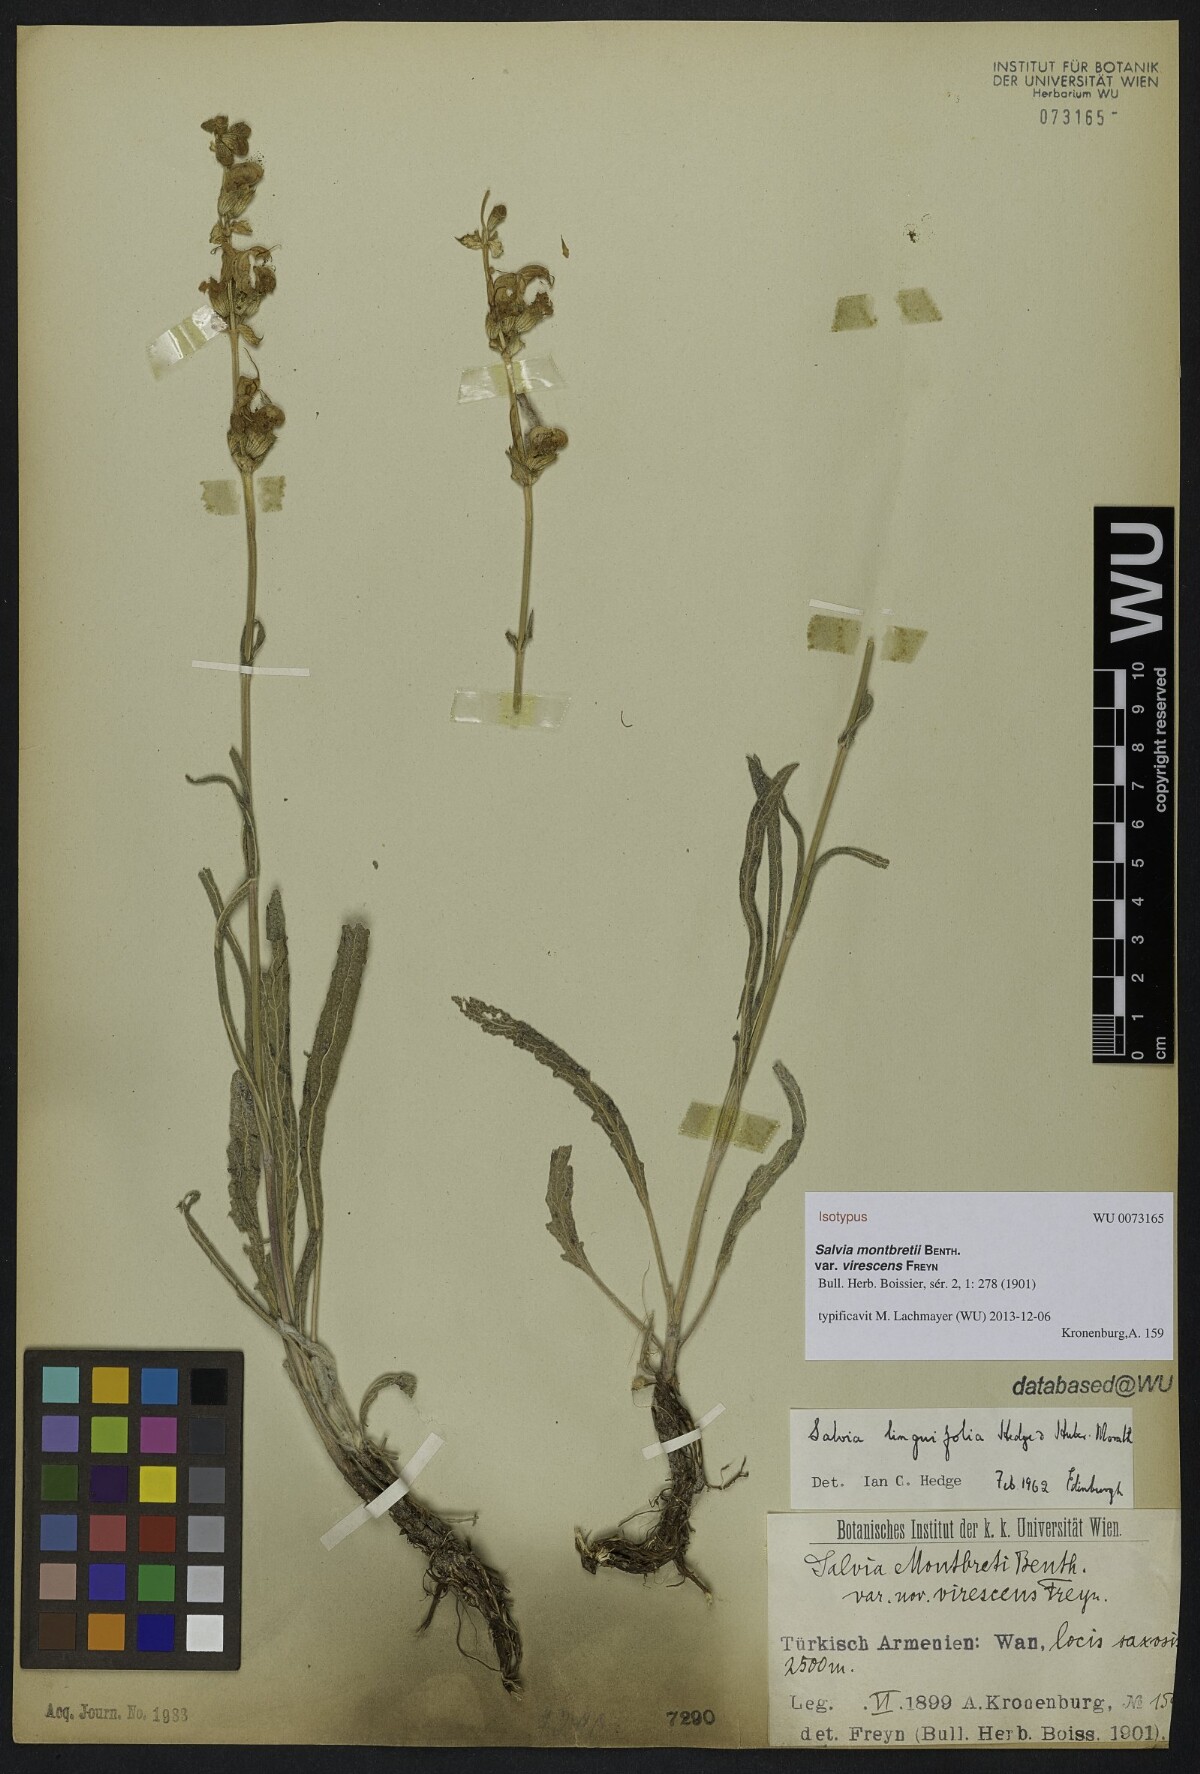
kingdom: Plantae
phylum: Tracheophyta
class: Magnoliopsida
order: Lamiales
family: Lamiaceae
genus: Salvia
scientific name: Salvia atropatana
